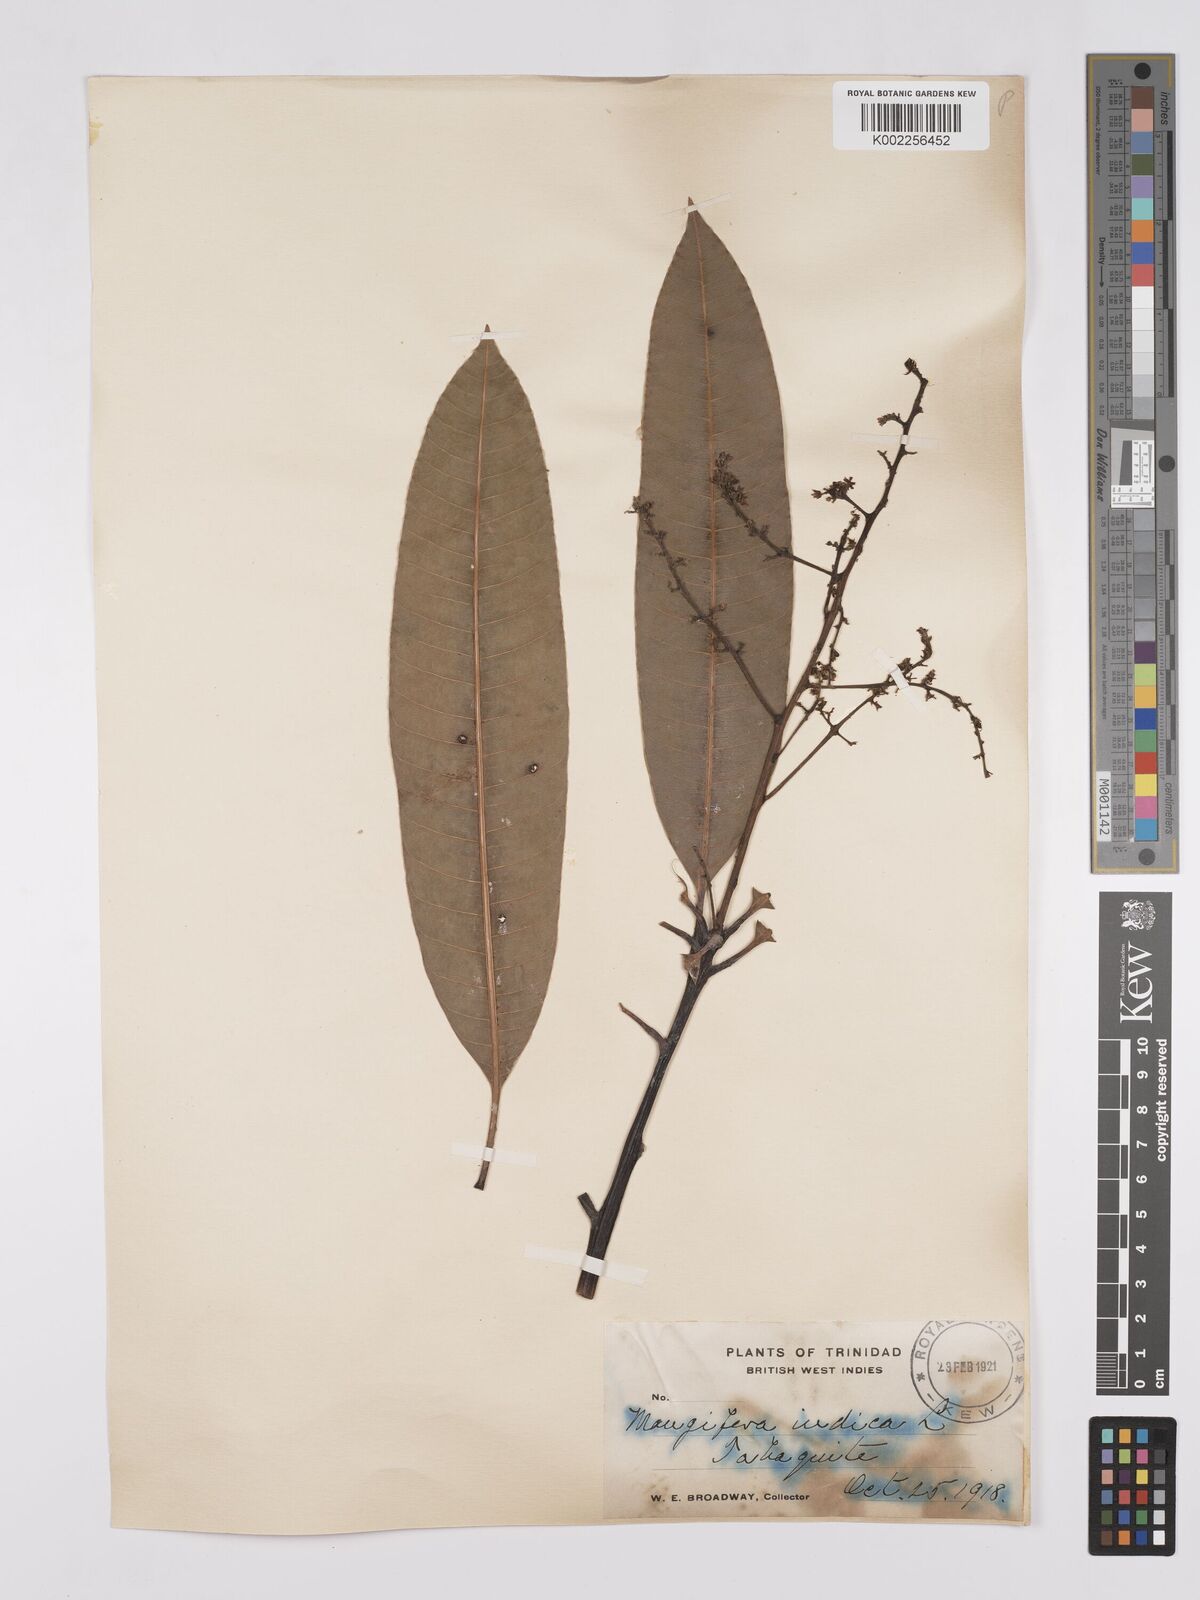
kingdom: Plantae
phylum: Tracheophyta
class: Magnoliopsida
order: Sapindales
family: Anacardiaceae
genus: Mangifera
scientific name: Mangifera indica
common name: Mango
